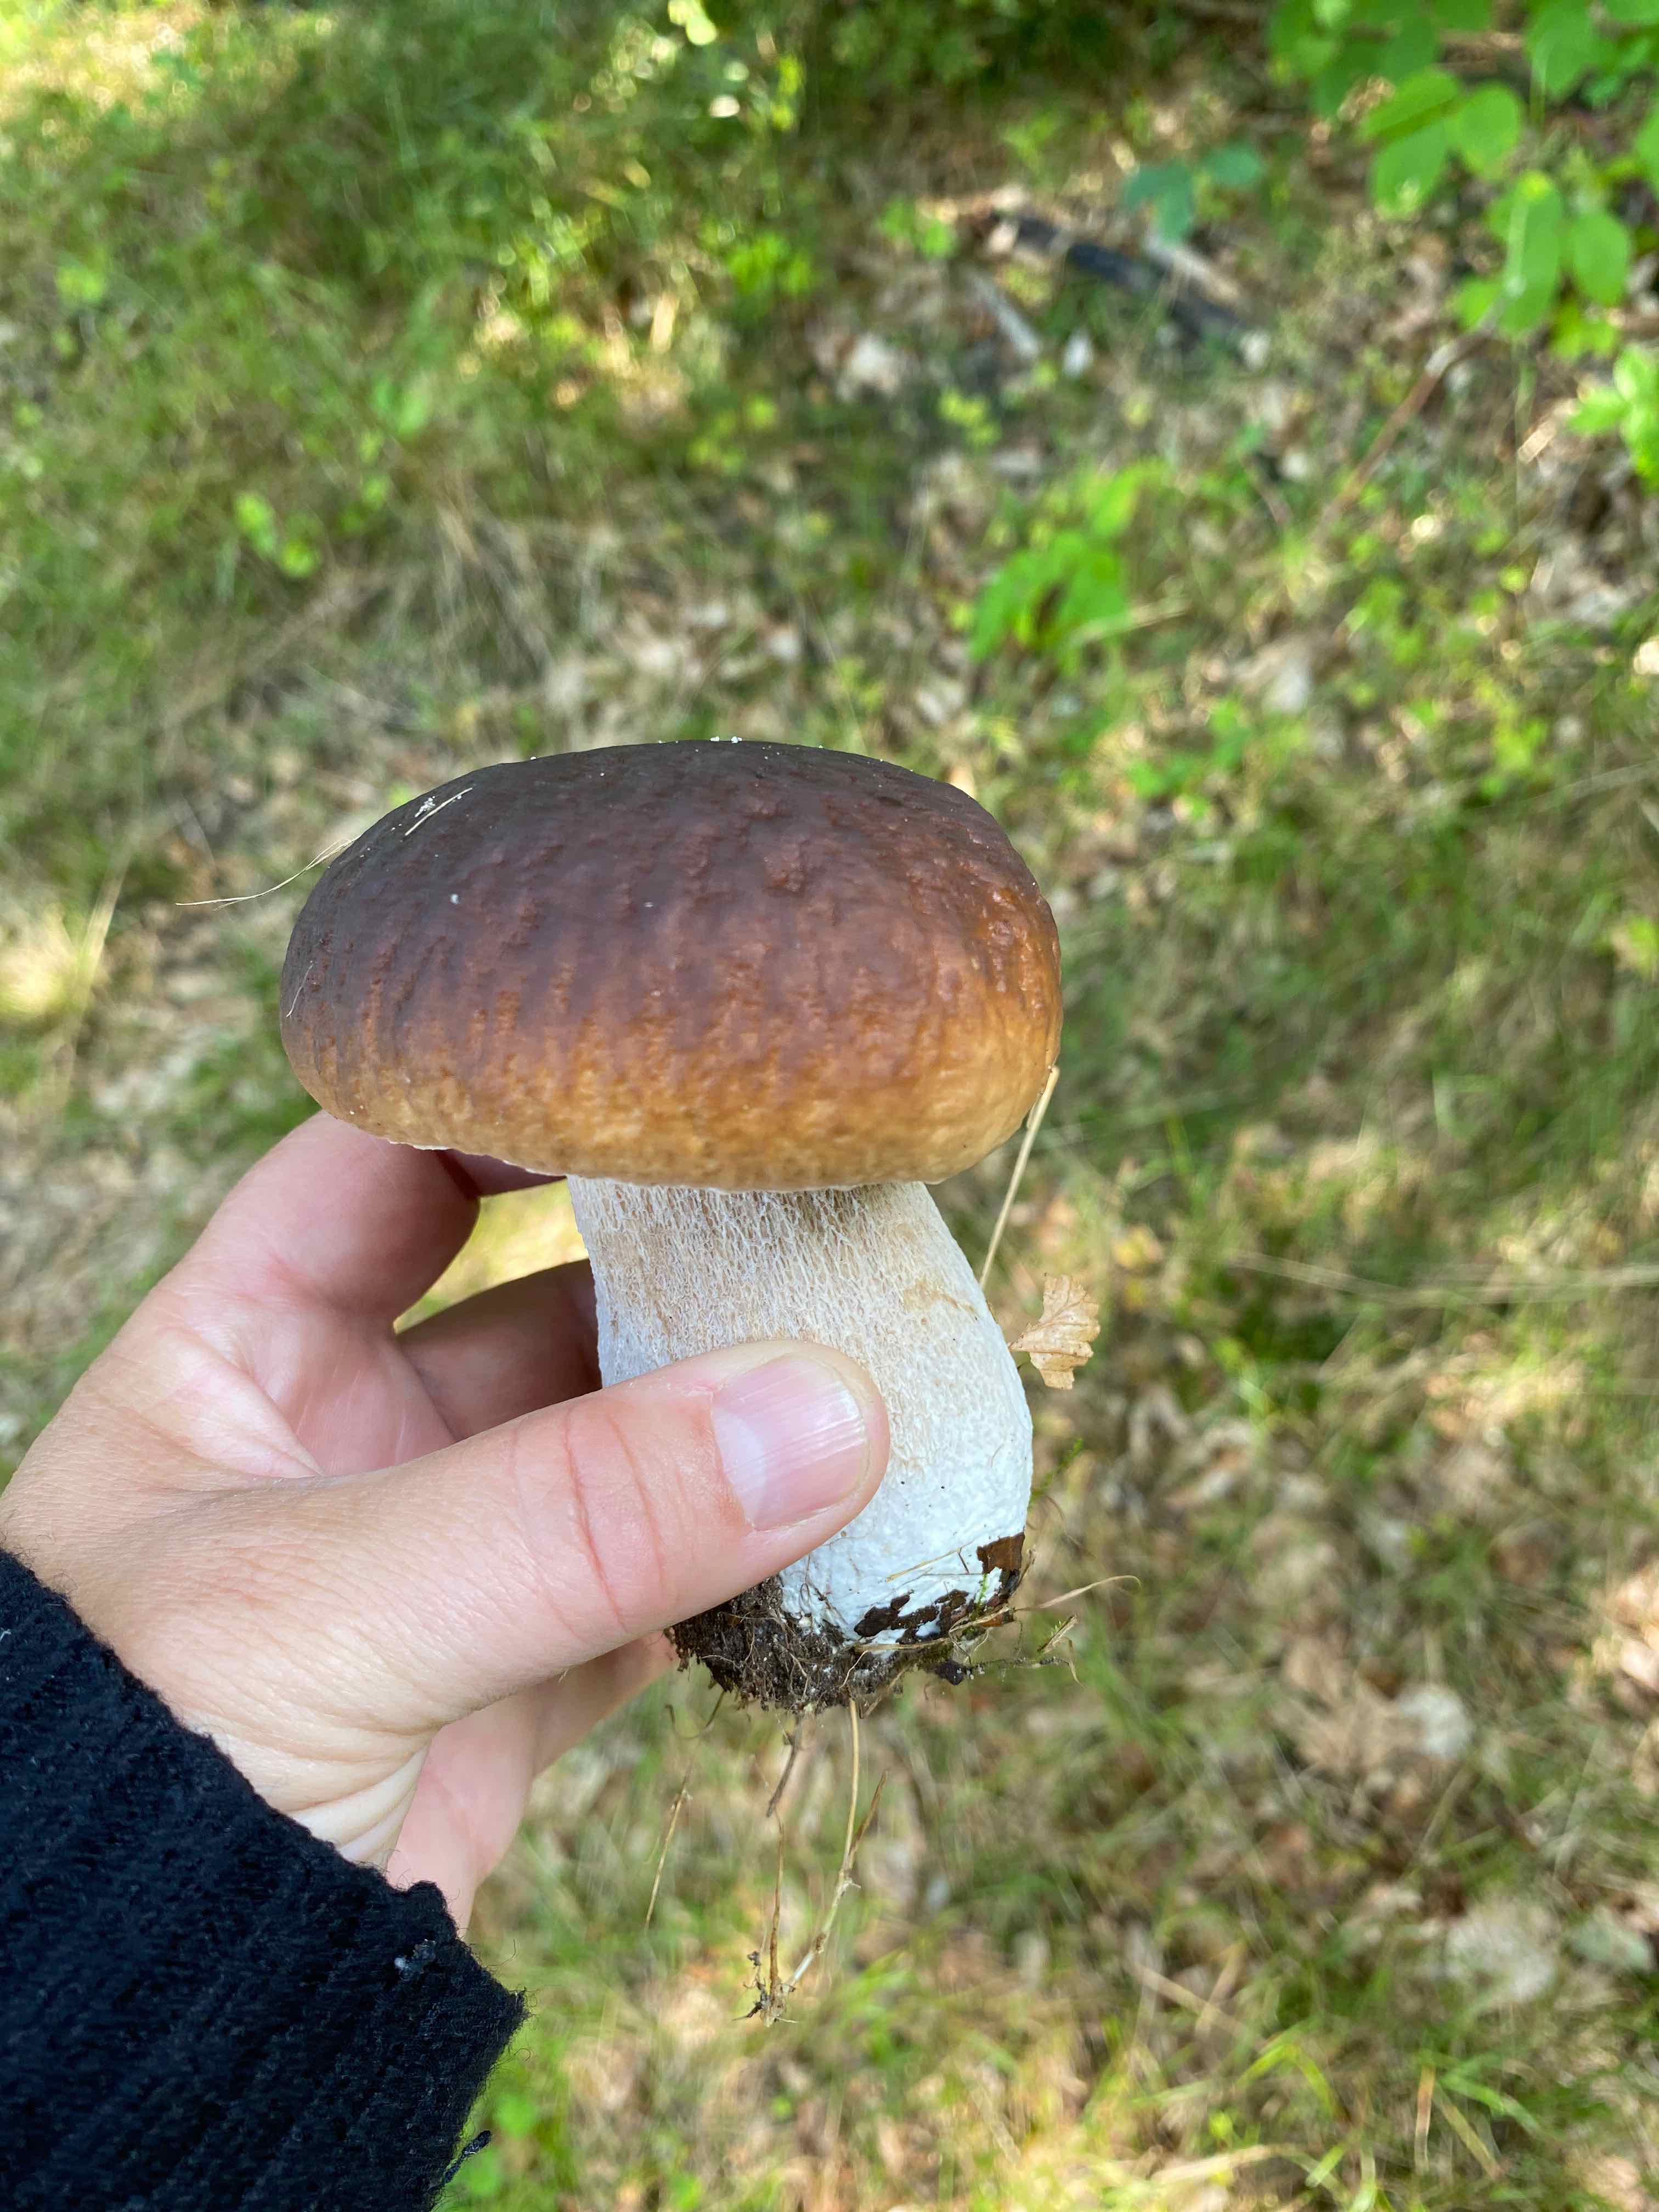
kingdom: Fungi
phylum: Basidiomycota
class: Agaricomycetes
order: Boletales
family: Boletaceae
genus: Boletus
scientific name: Boletus edulis
